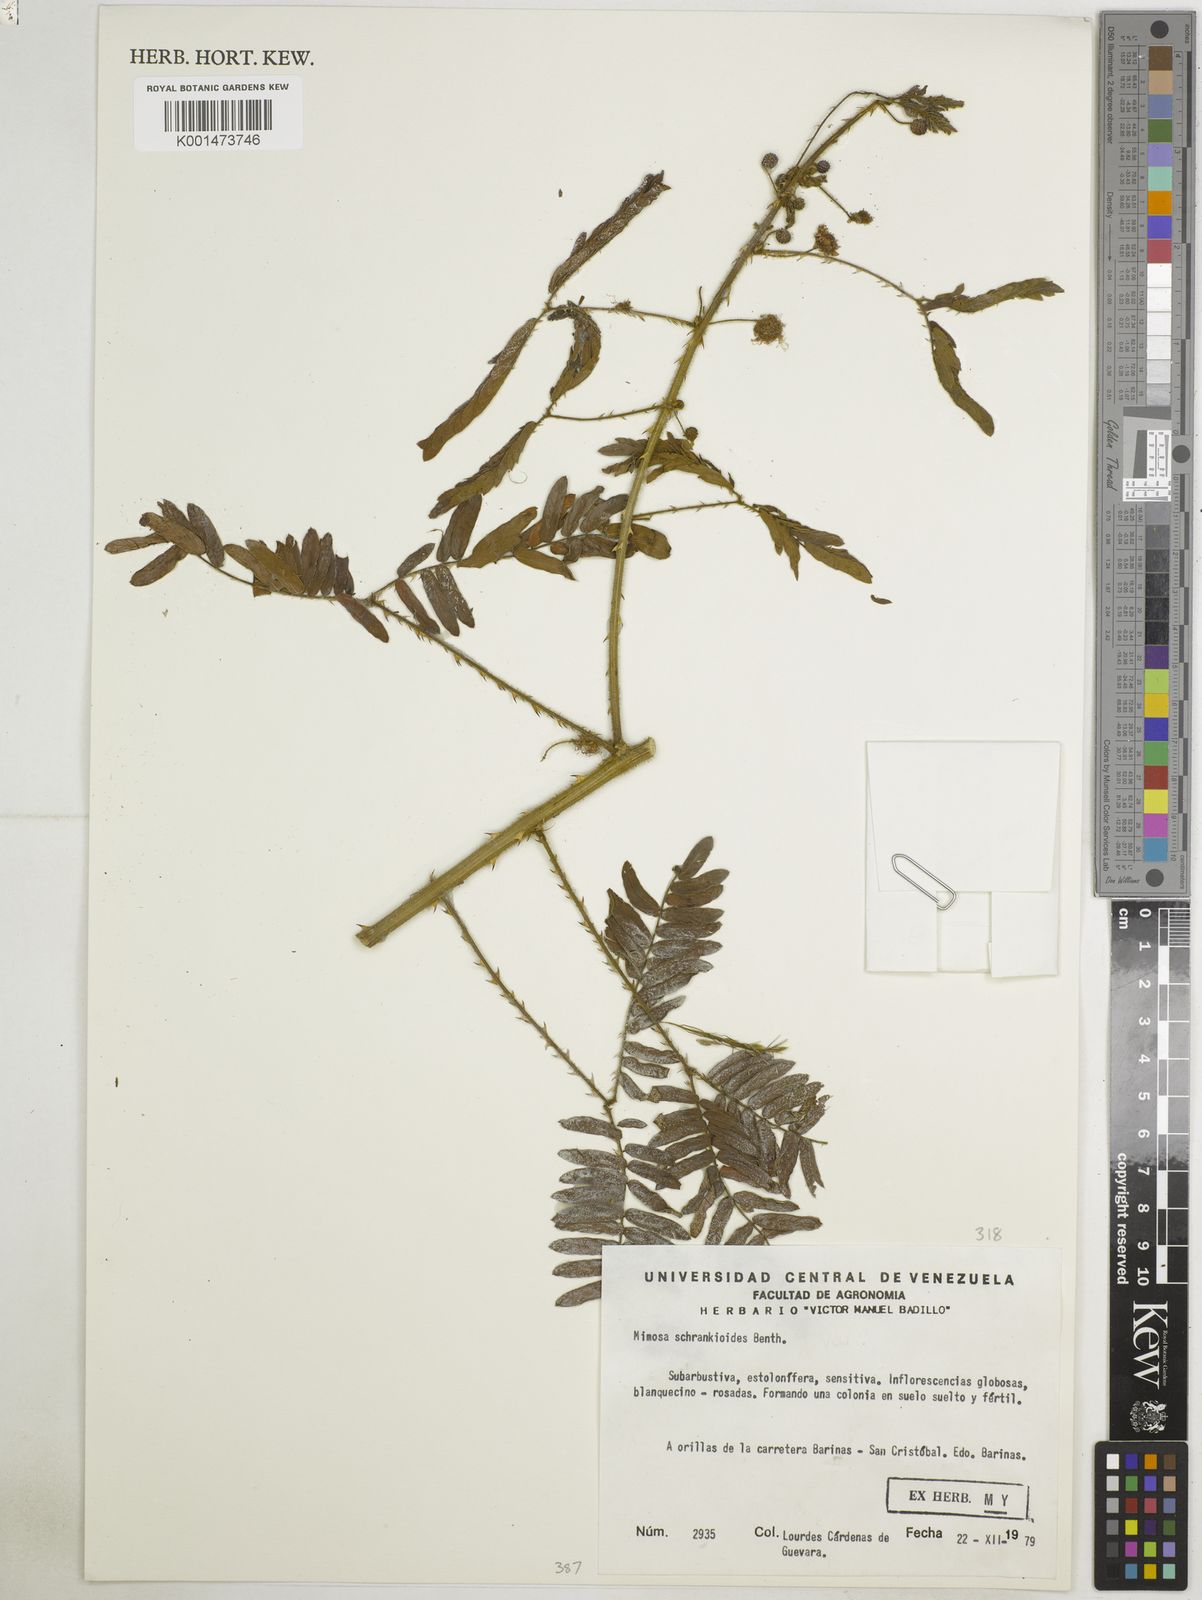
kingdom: Plantae
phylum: Tracheophyta
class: Magnoliopsida
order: Fabales
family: Fabaceae
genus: Mimosa
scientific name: Mimosa schrankioides
